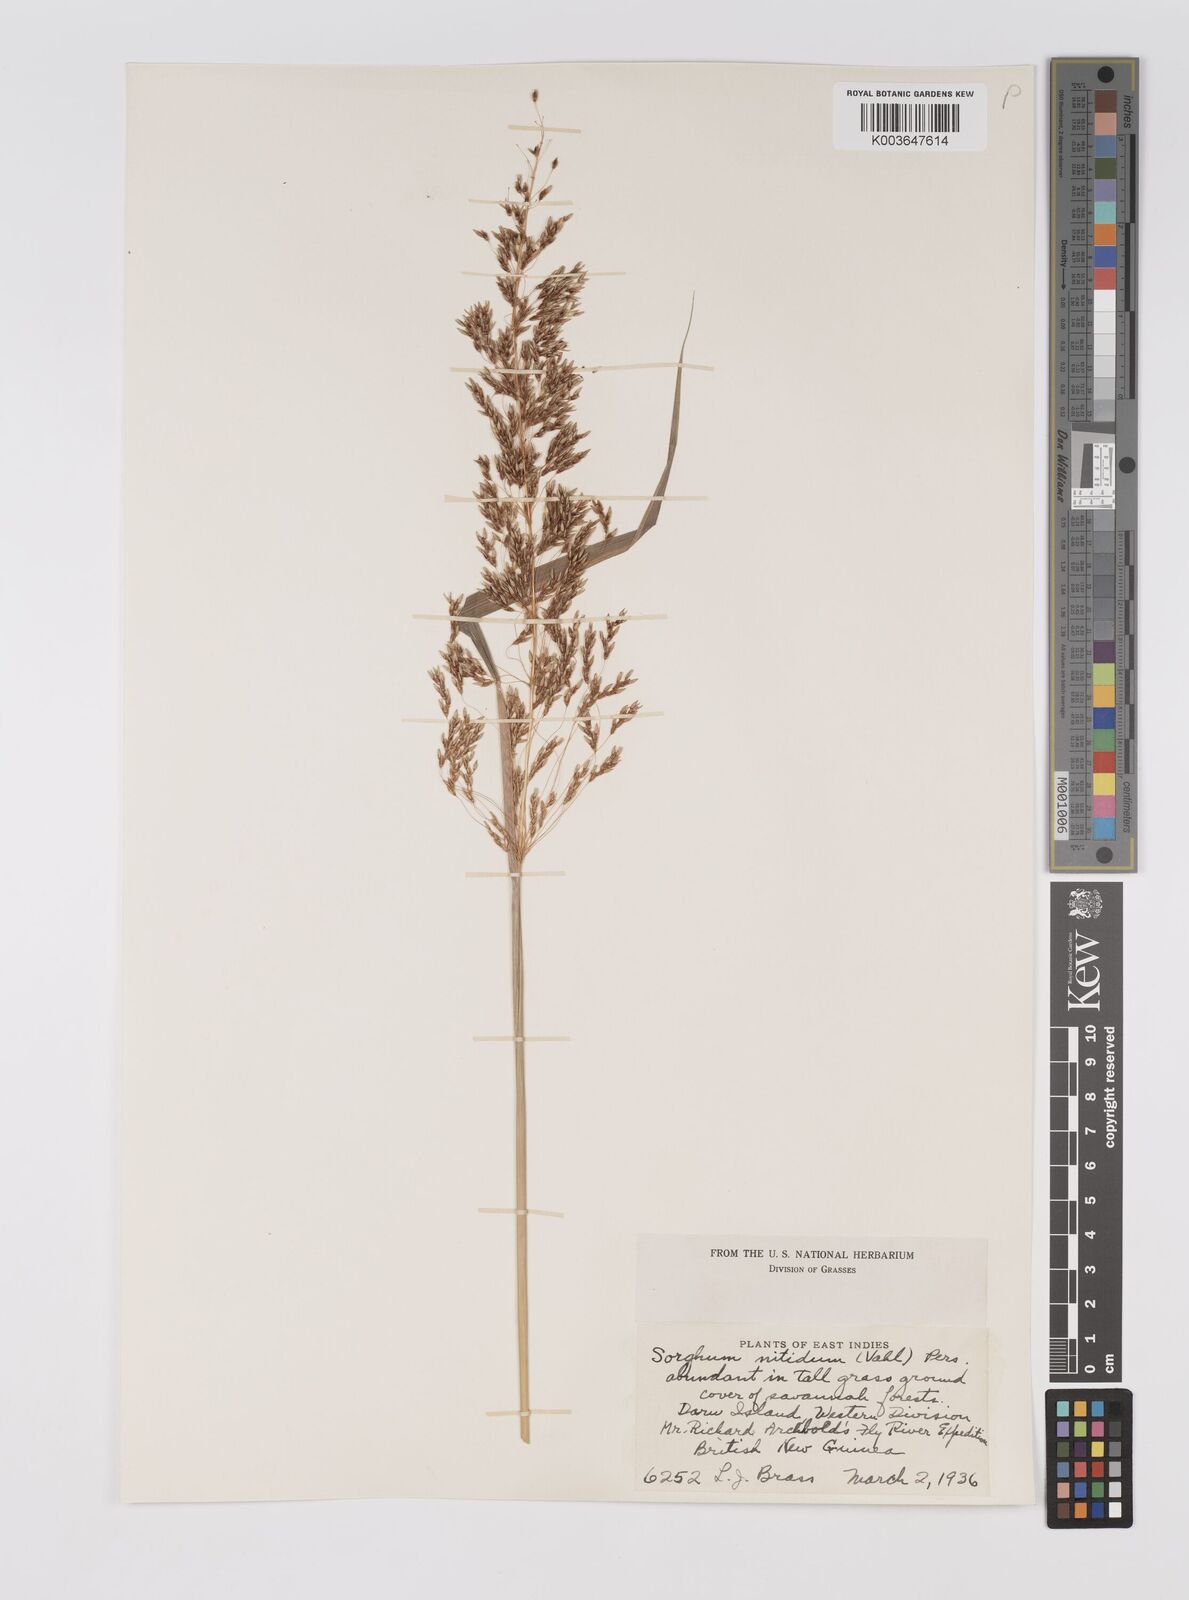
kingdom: Plantae
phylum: Tracheophyta
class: Liliopsida
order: Poales
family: Poaceae
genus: Sorghum
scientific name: Sorghum nitidum
